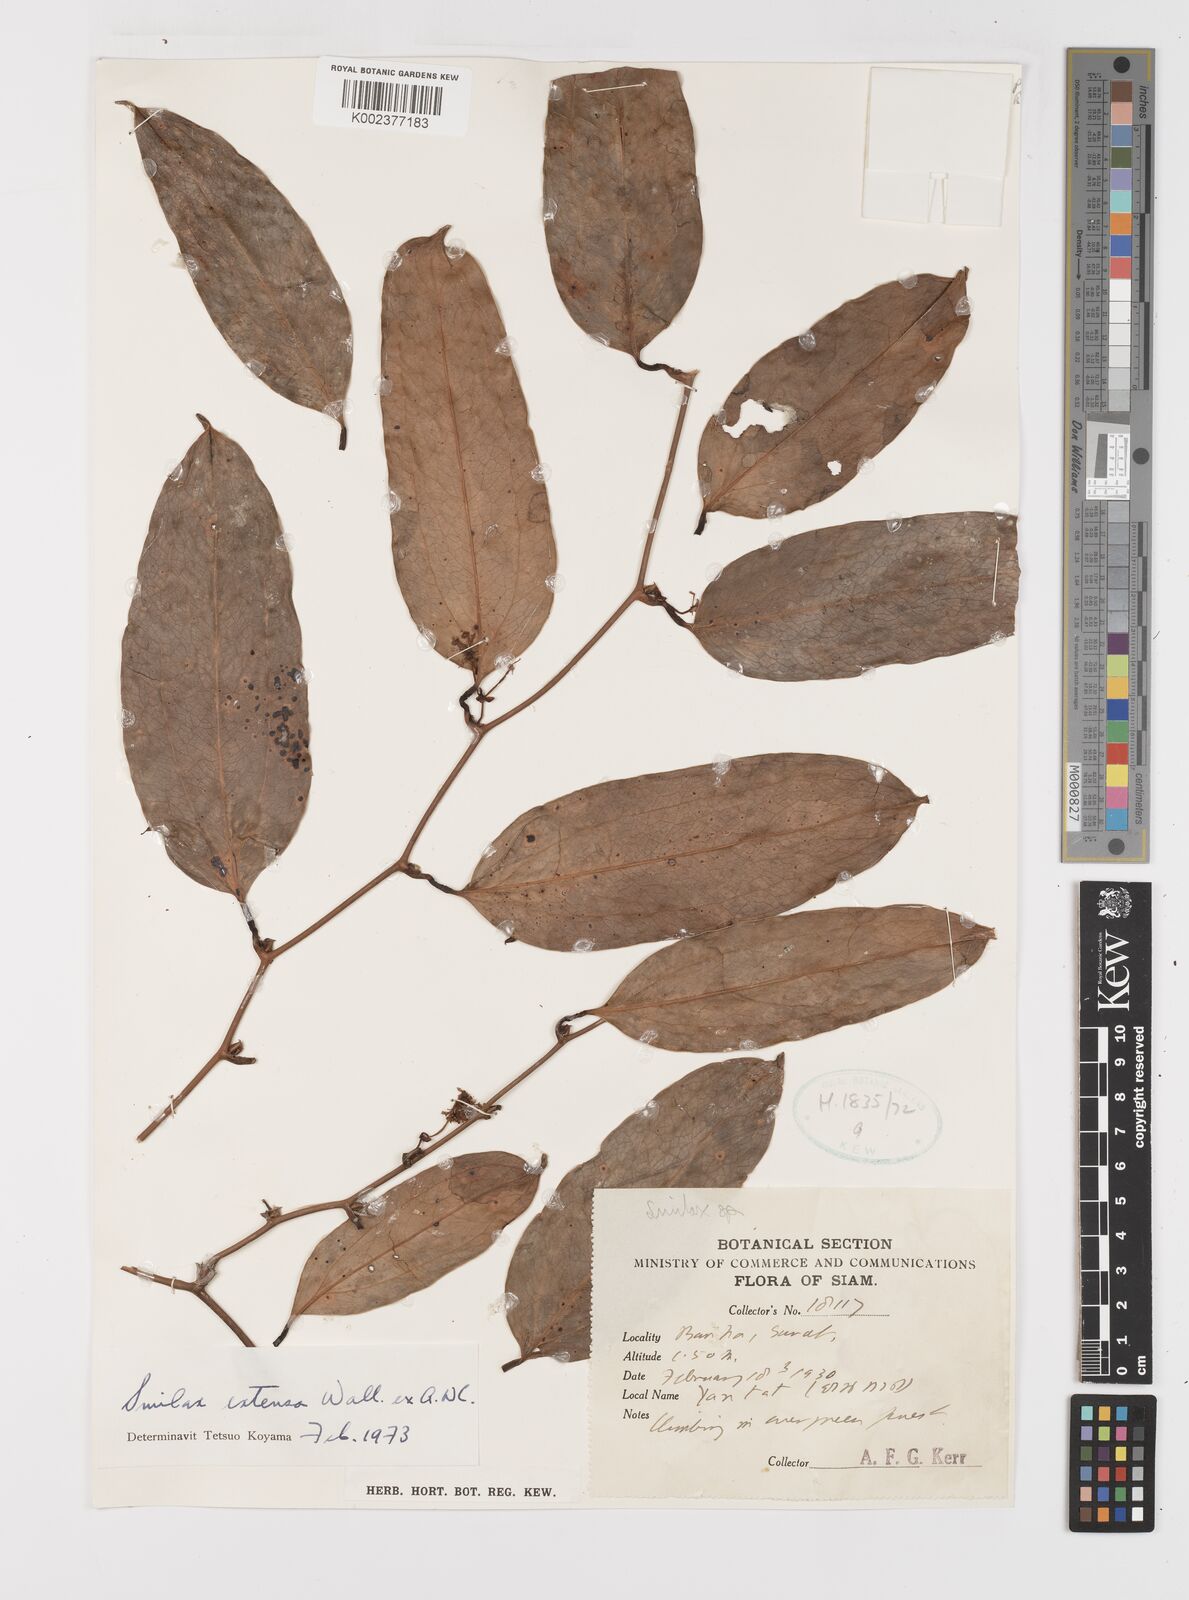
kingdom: Plantae
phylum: Tracheophyta
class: Liliopsida
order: Liliales
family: Smilacaceae
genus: Smilax
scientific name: Smilax extensa
